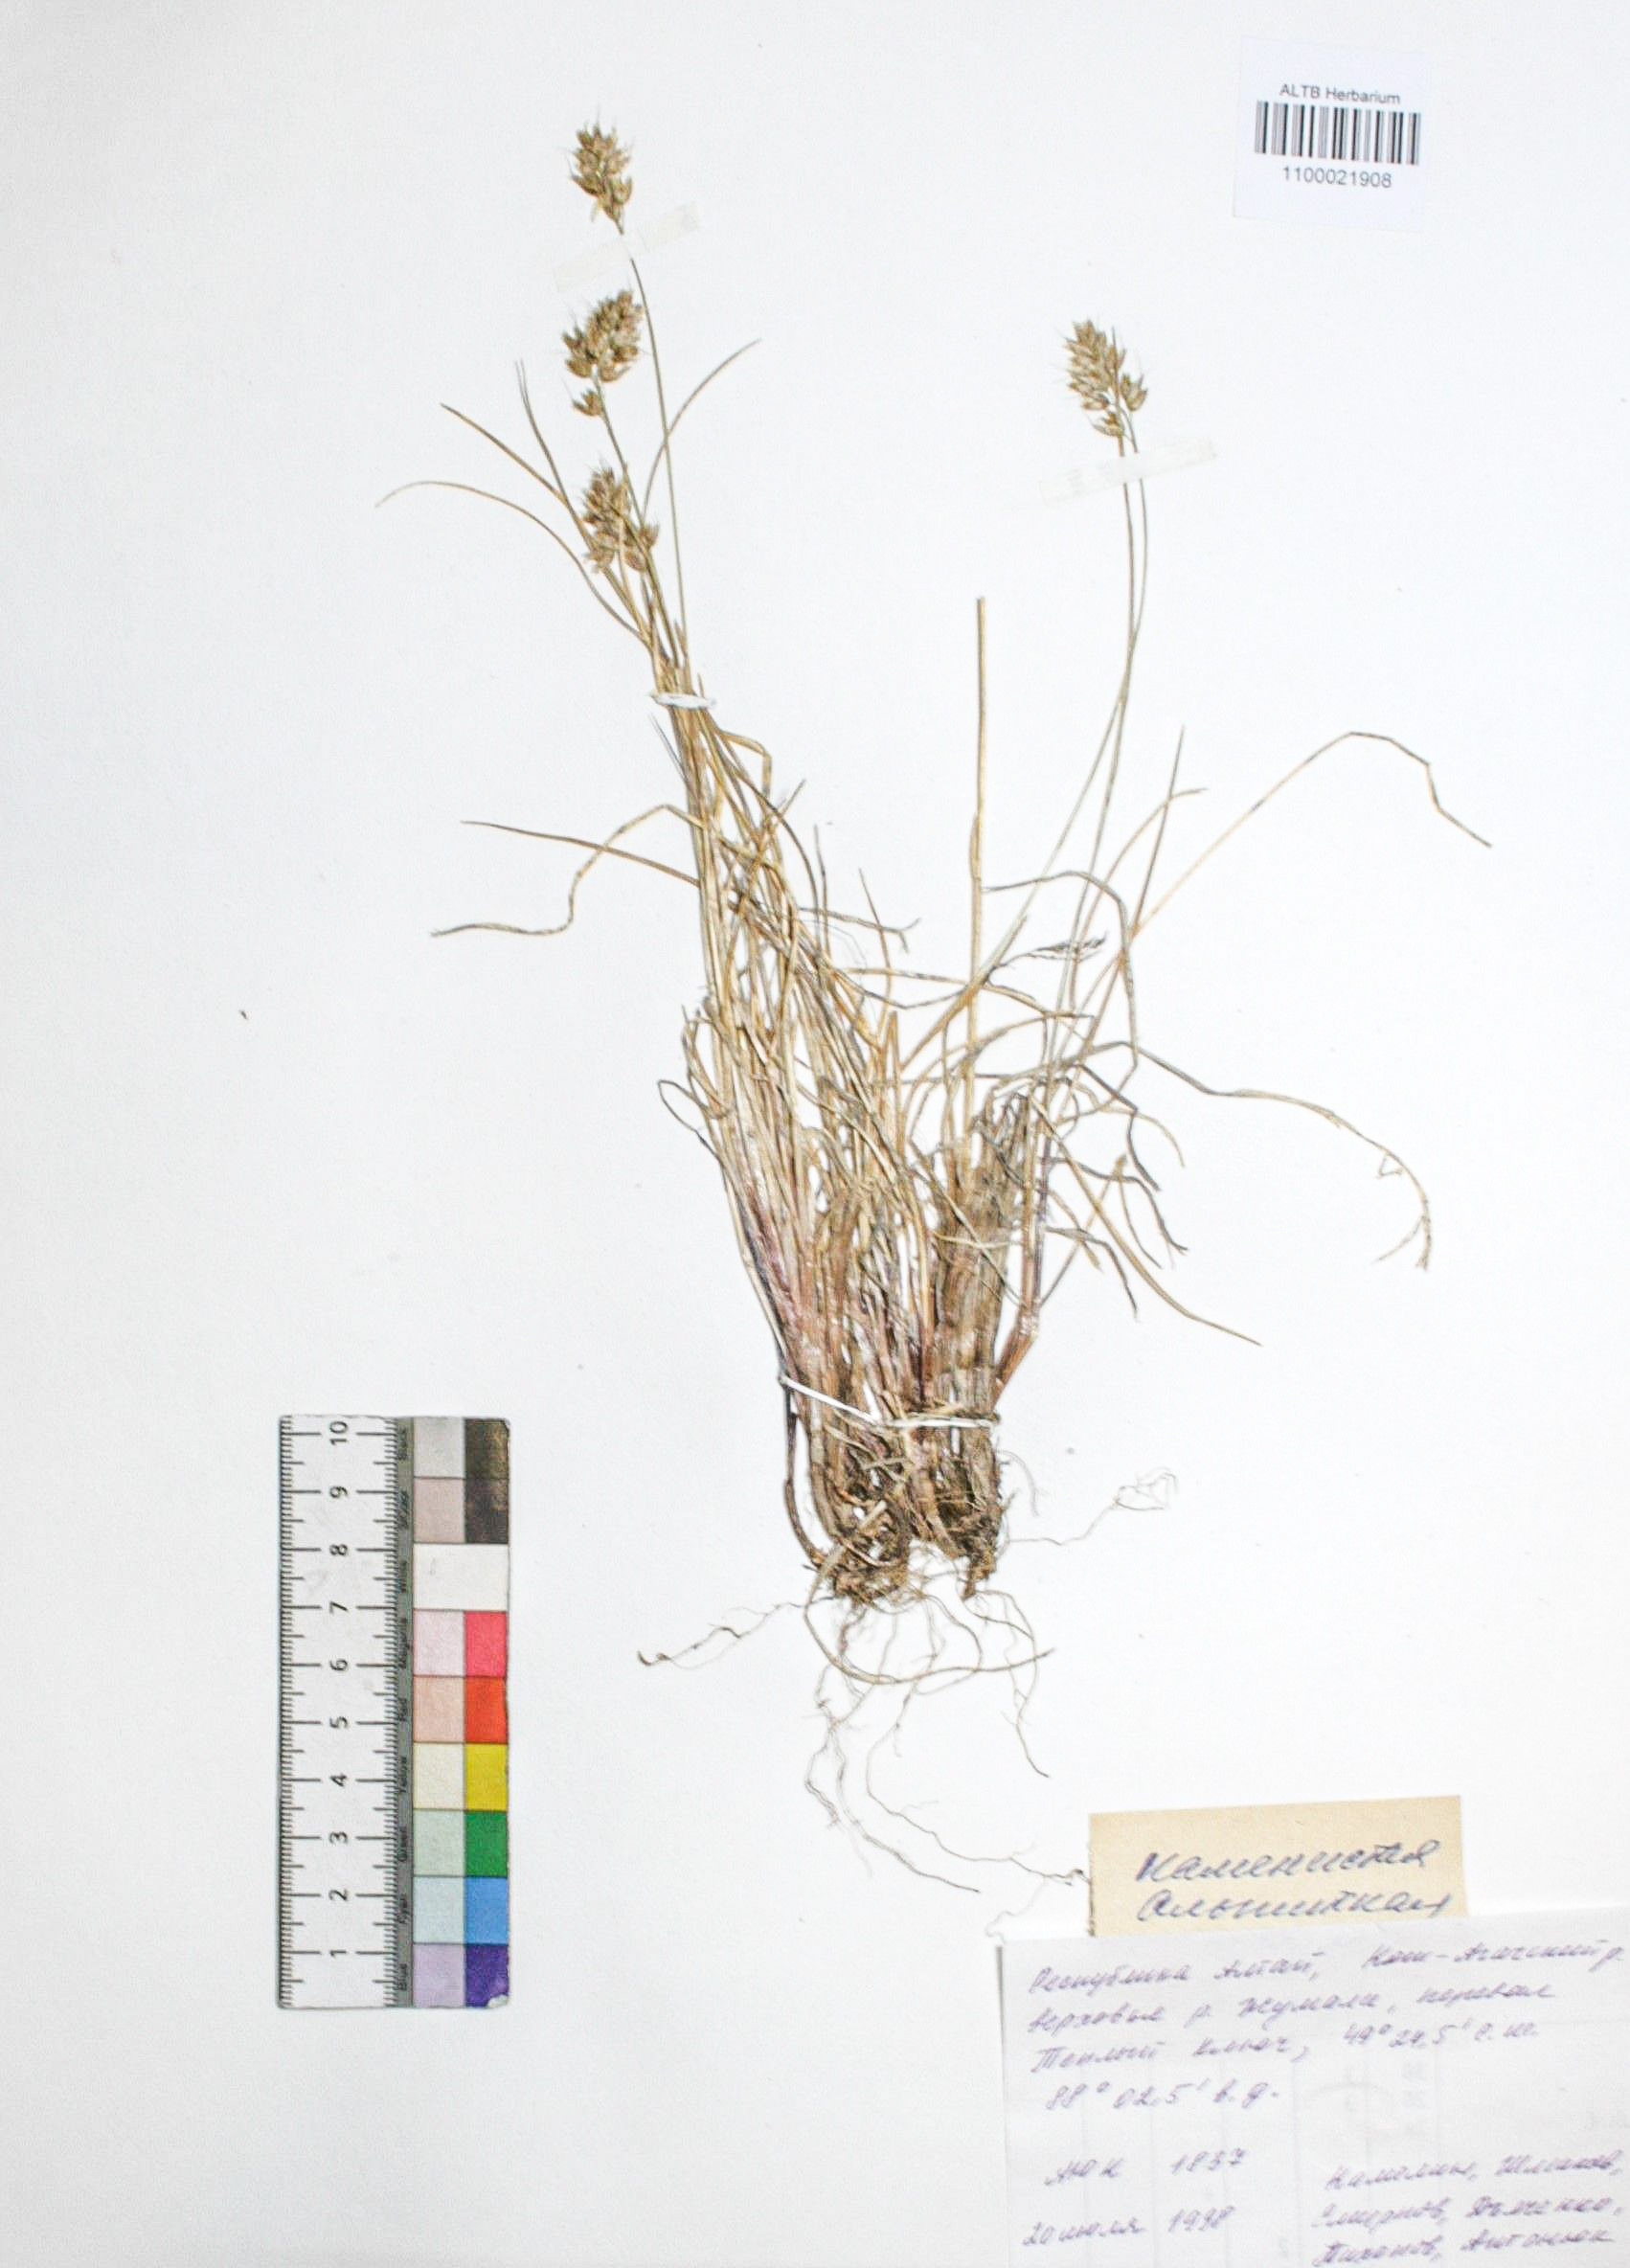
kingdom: Plantae
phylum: Tracheophyta
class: Liliopsida
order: Poales
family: Poaceae
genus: Anthoxanthum
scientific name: Anthoxanthum monticola
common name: Alpine sweetgrass
